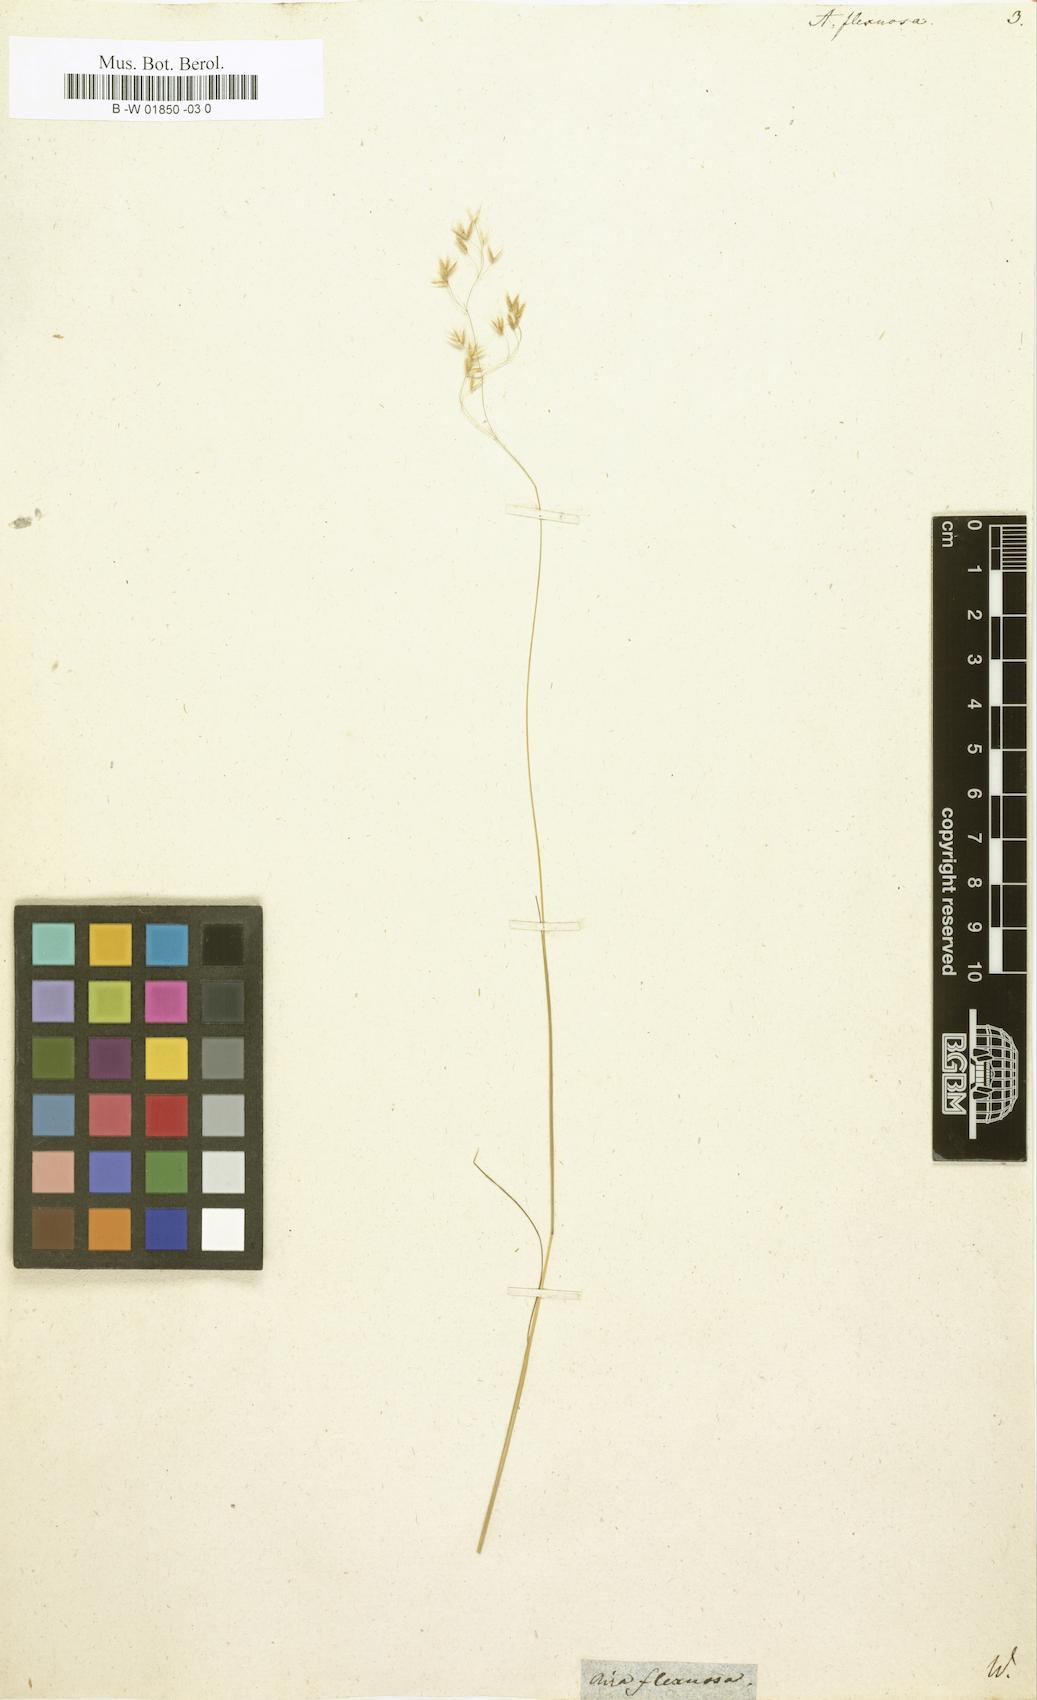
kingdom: Plantae
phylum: Tracheophyta
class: Liliopsida
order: Poales
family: Poaceae
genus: Avenella
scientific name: Avenella flexuosa
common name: Wavy hairgrass
